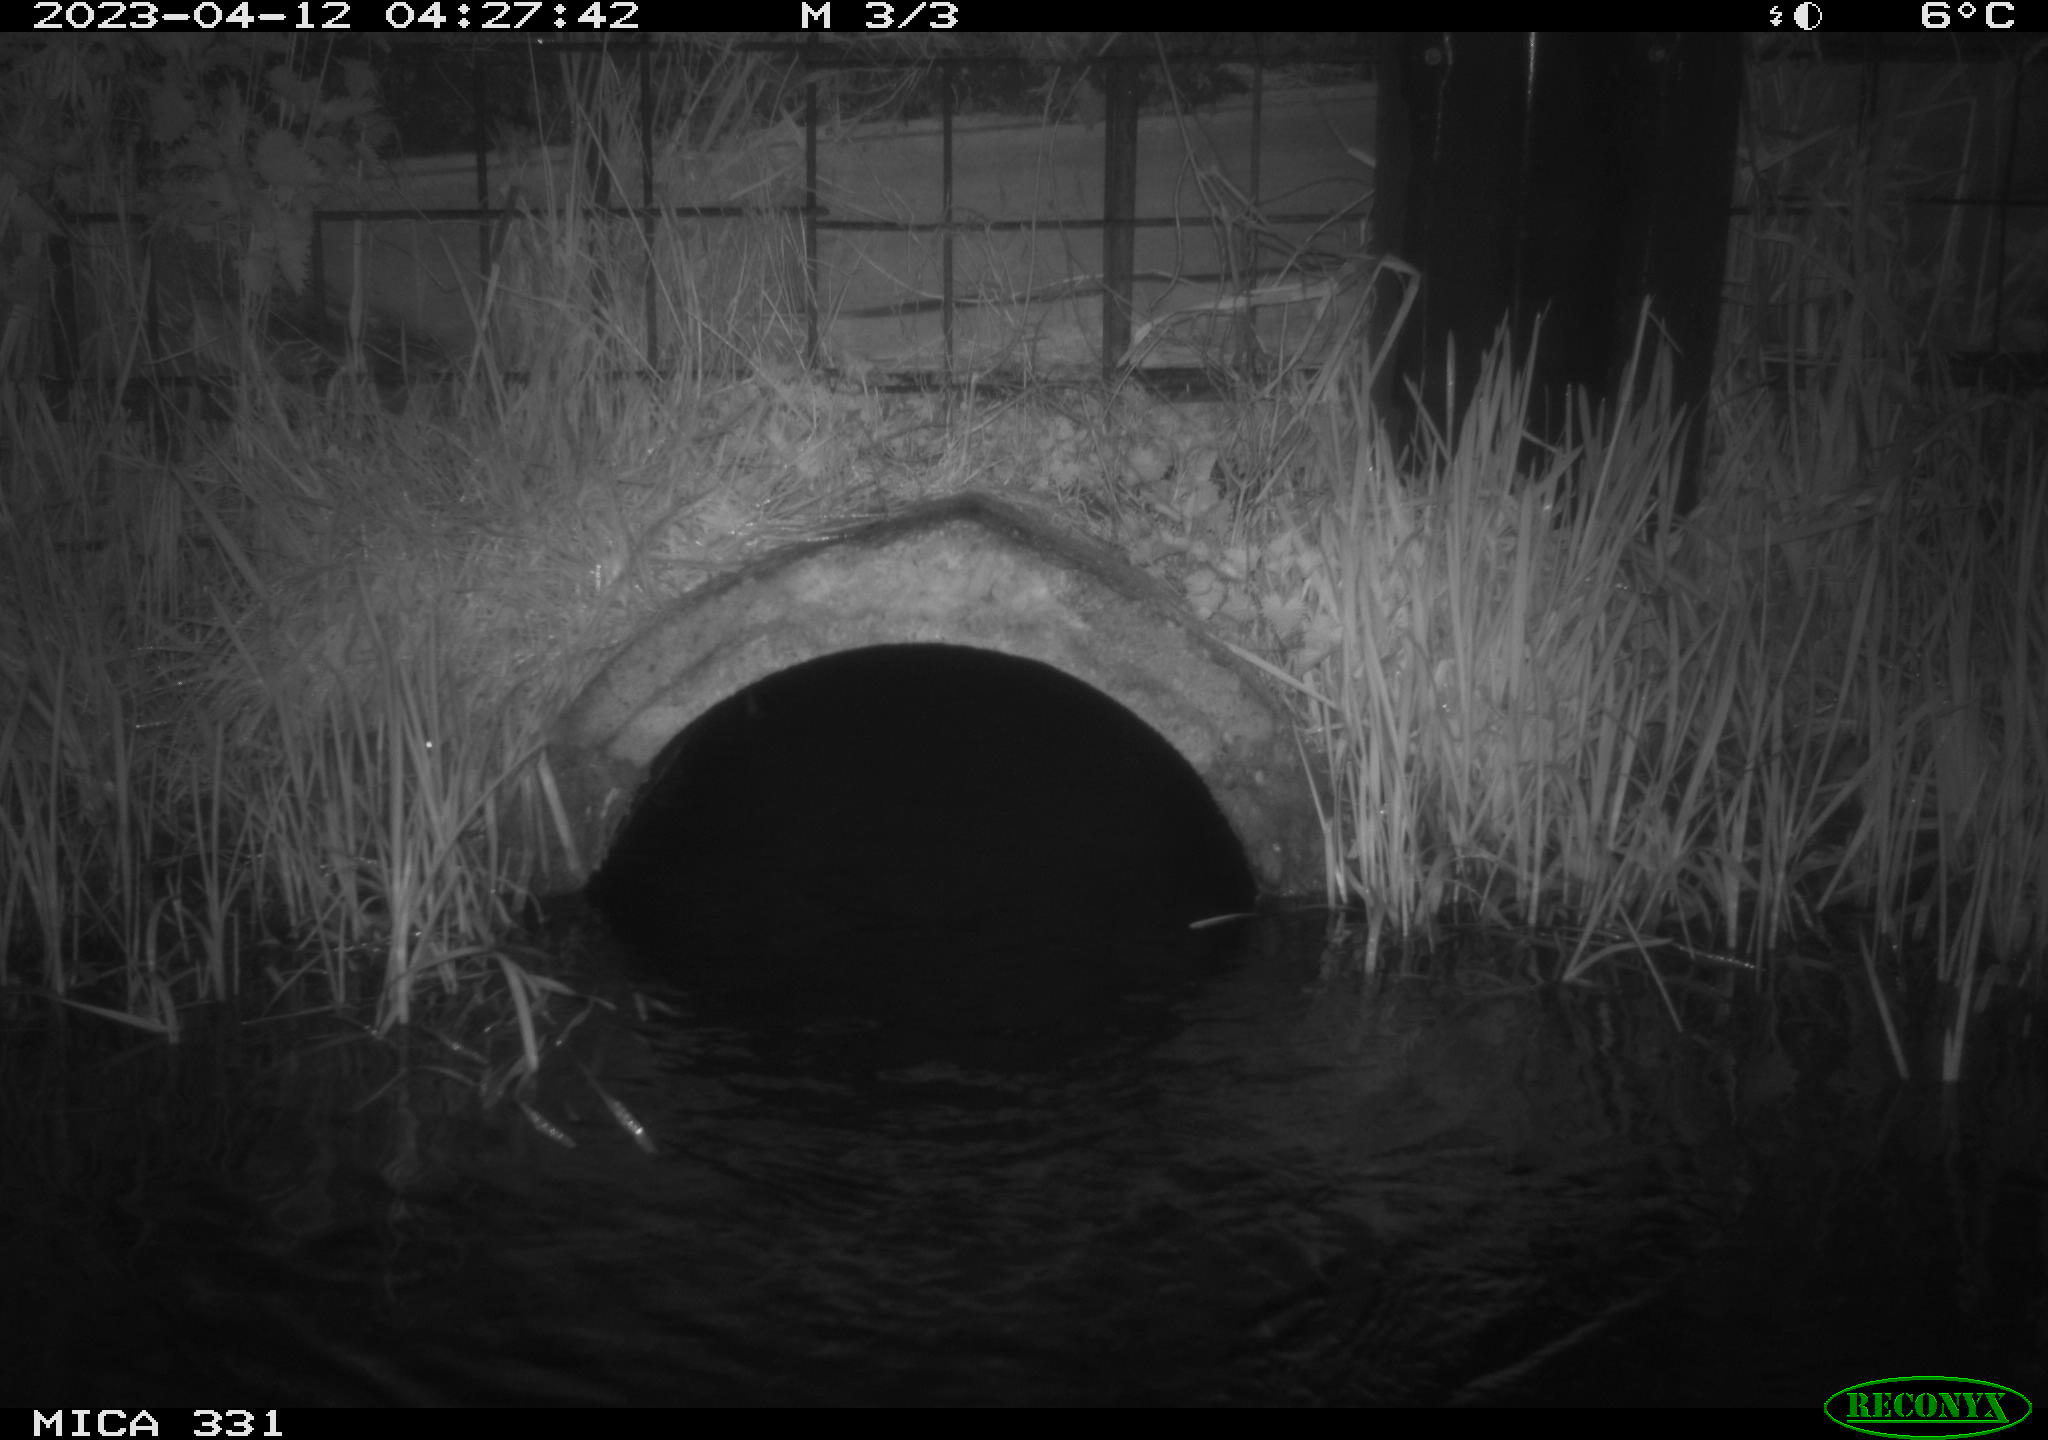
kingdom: Animalia
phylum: Chordata
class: Mammalia
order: Rodentia
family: Muridae
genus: Rattus
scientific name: Rattus norvegicus
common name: Brown rat
